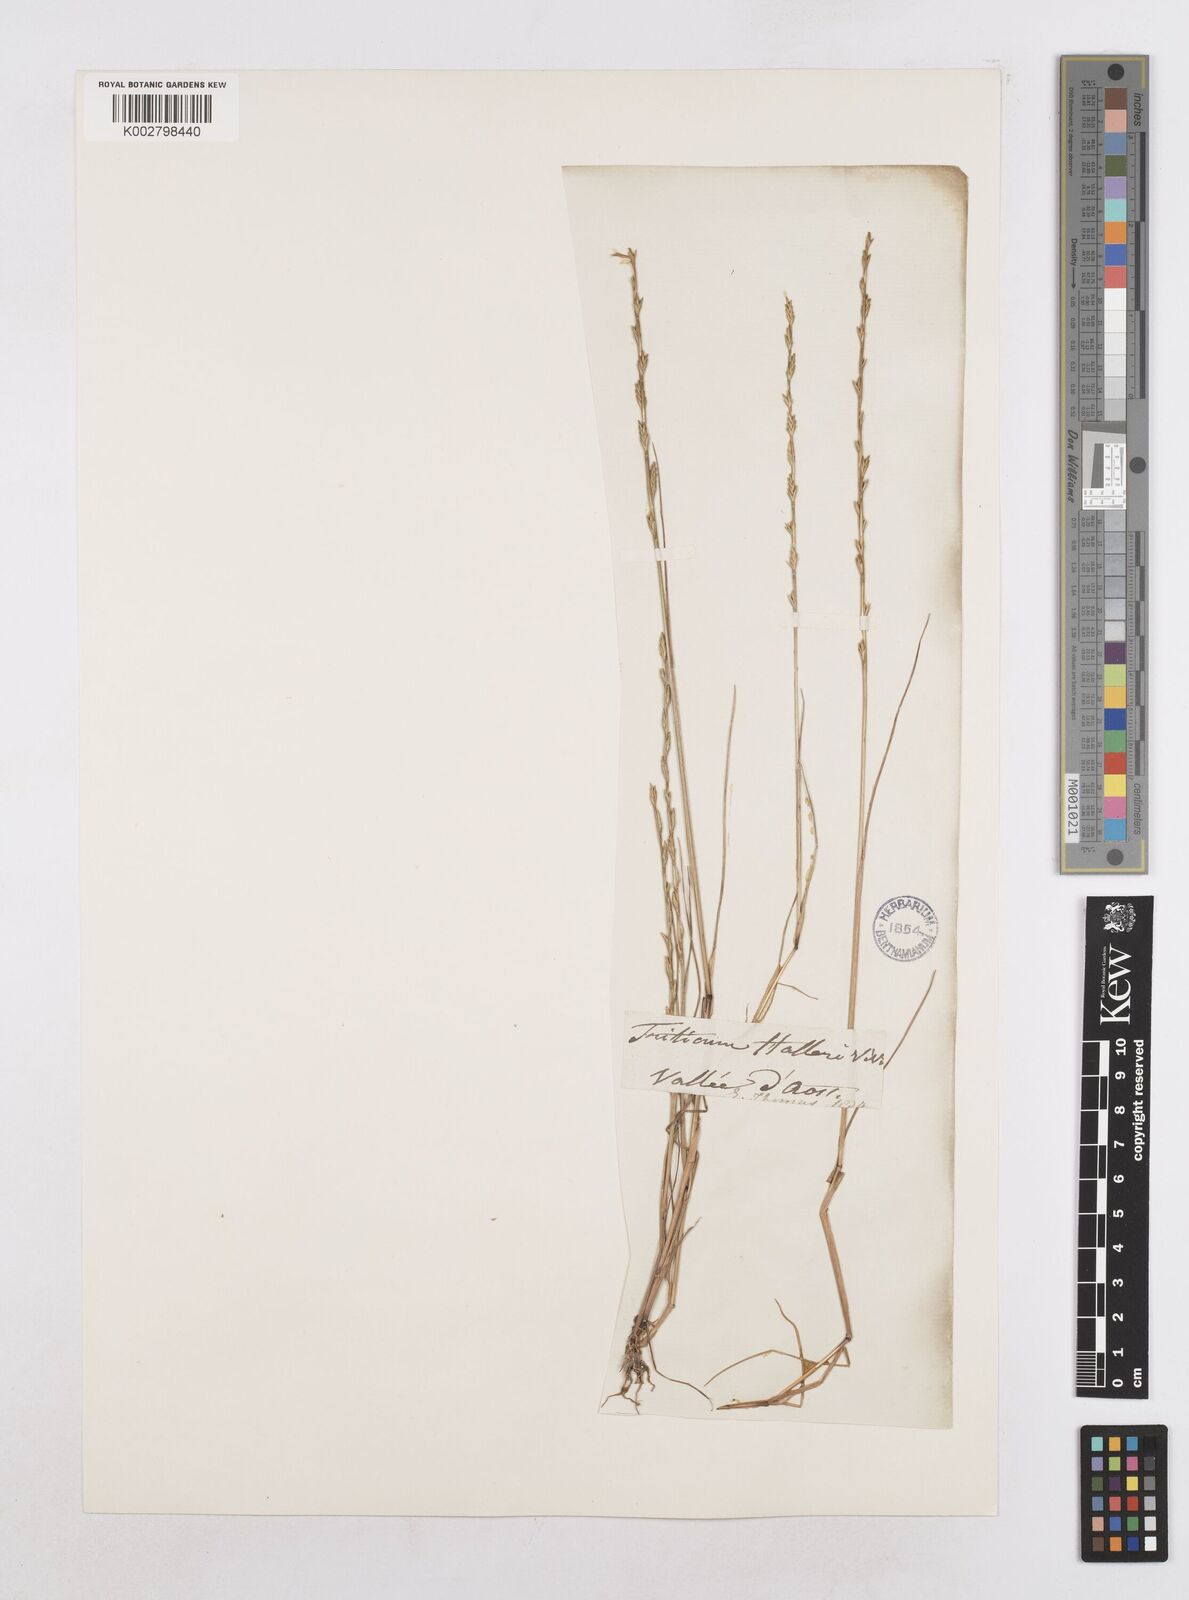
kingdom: Plantae
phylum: Tracheophyta
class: Liliopsida
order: Poales
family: Poaceae
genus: Festuca
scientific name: Festuca lachenalii
